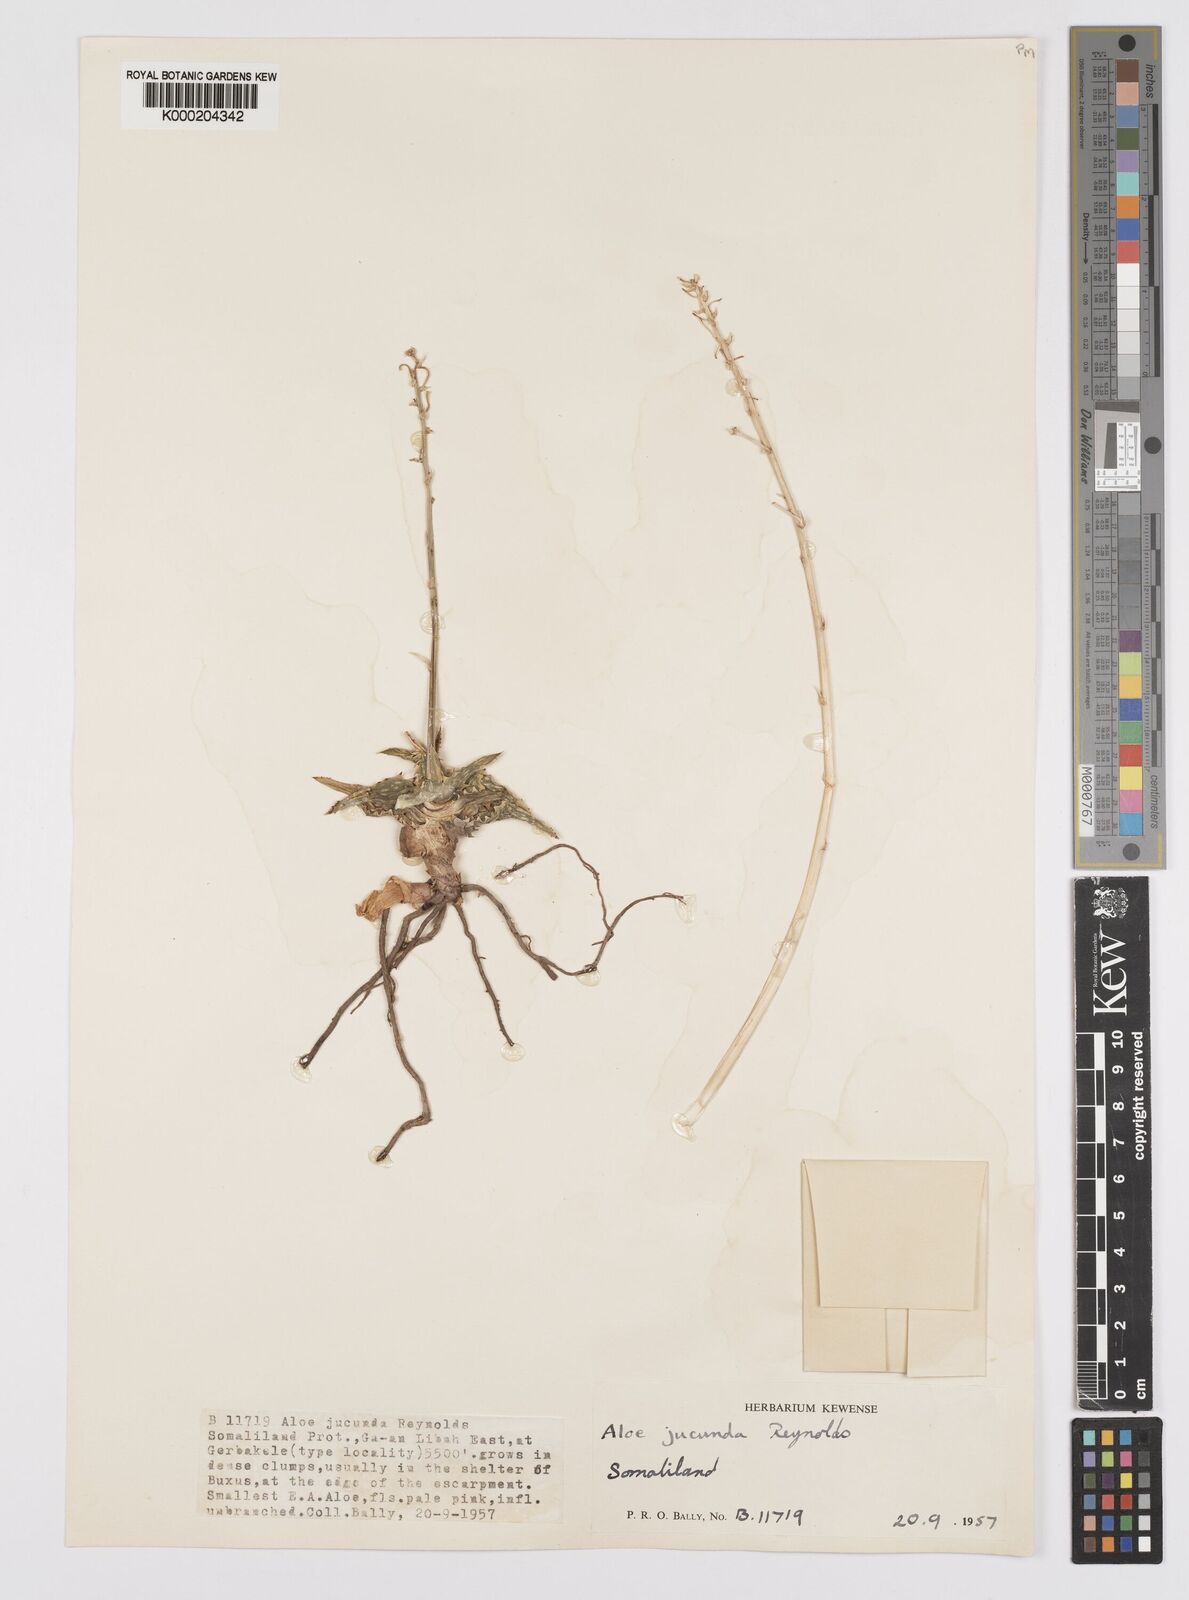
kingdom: Plantae
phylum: Tracheophyta
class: Liliopsida
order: Asparagales
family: Asphodelaceae
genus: Aloe
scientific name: Aloe jucunda
